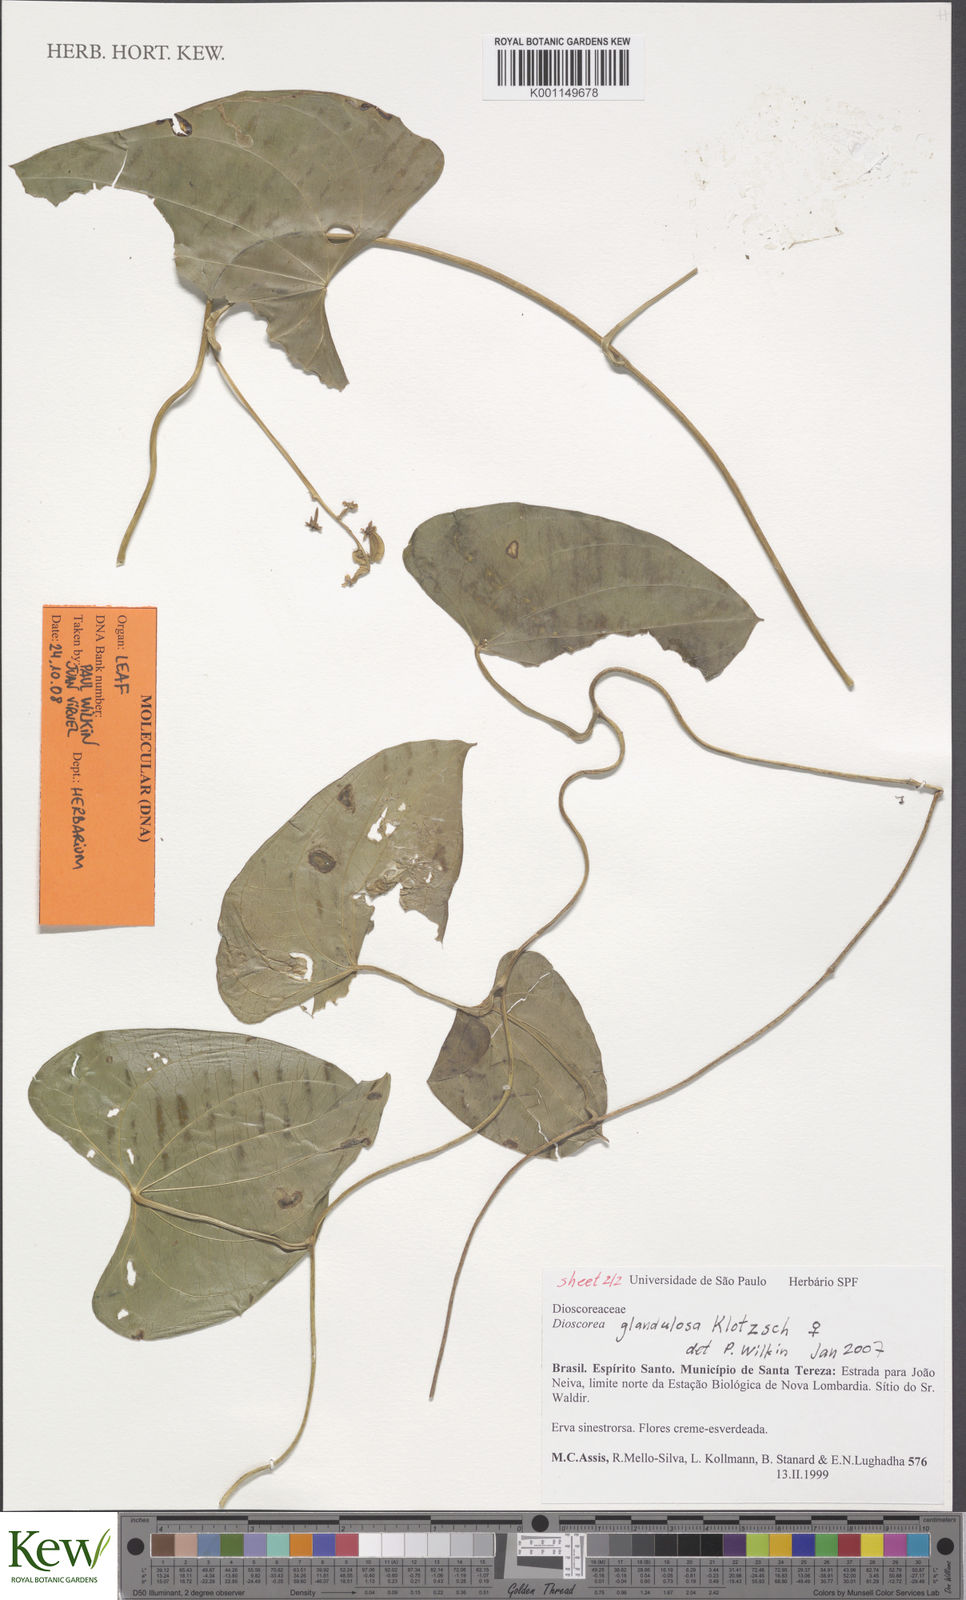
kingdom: Plantae
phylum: Tracheophyta
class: Liliopsida
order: Dioscoreales
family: Dioscoreaceae
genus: Dioscorea
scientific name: Dioscorea glandulosa
